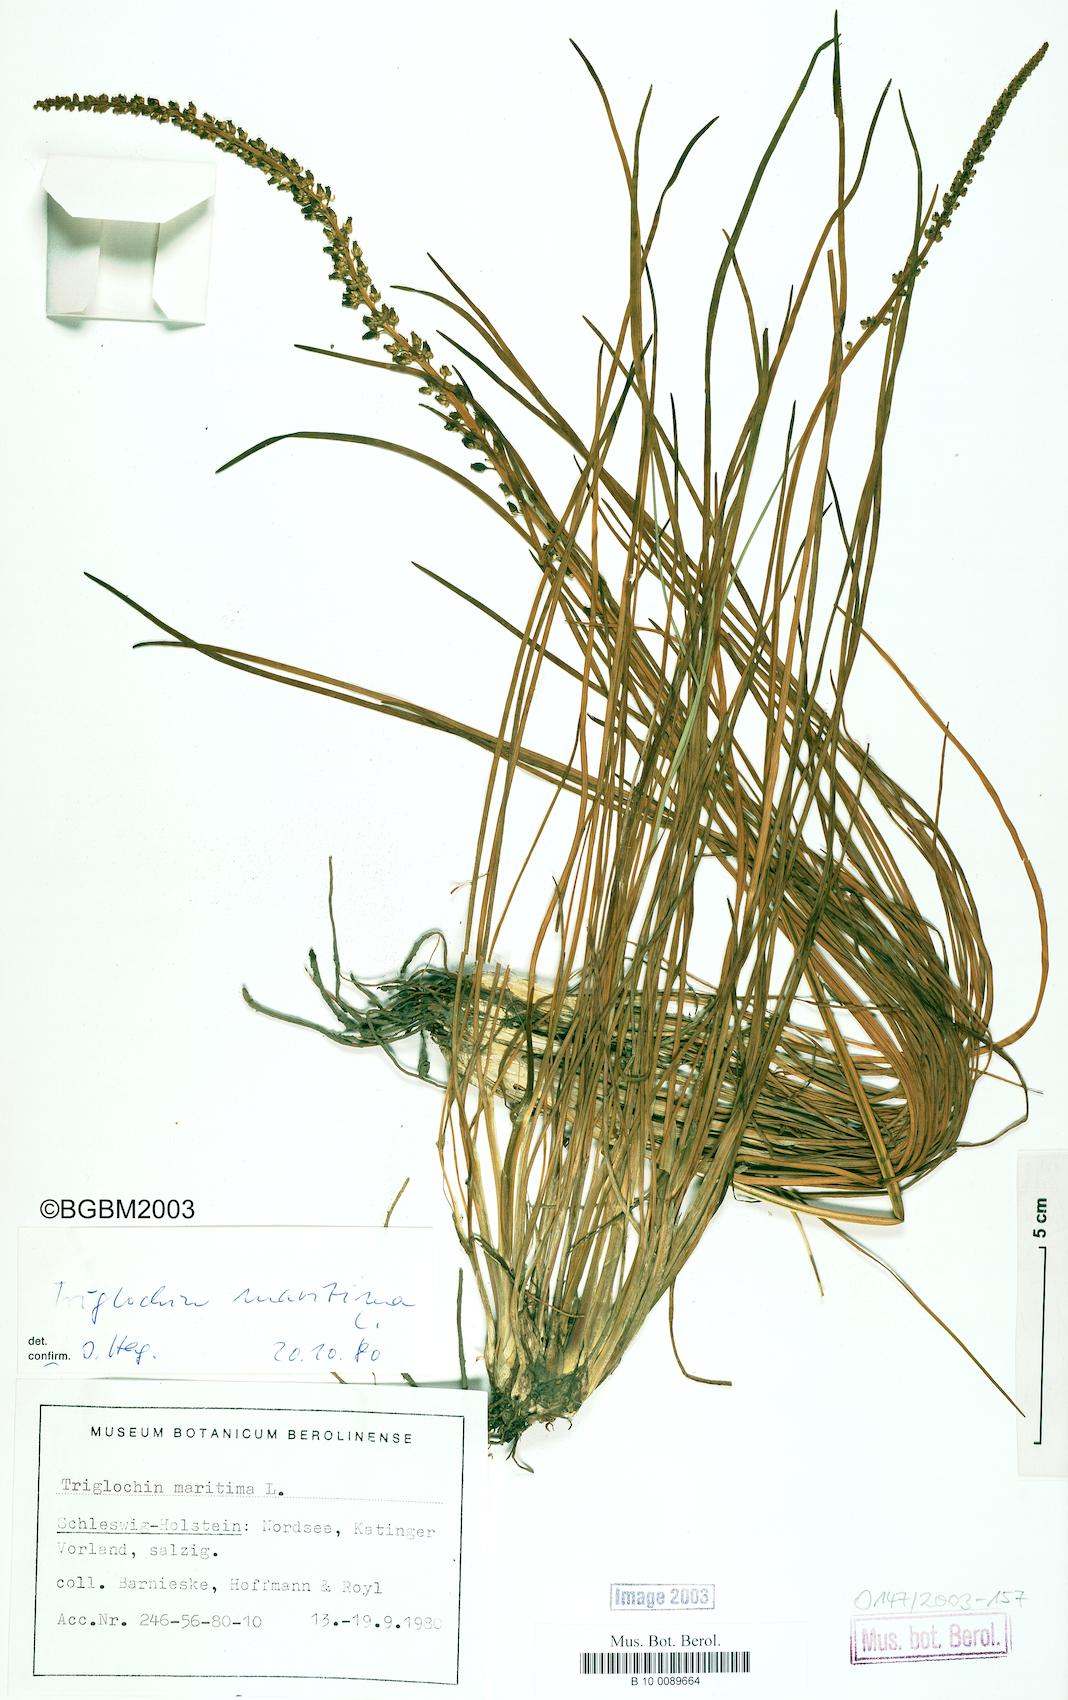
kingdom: Plantae
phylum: Tracheophyta
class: Liliopsida
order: Alismatales
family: Juncaginaceae
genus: Triglochin
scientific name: Triglochin maritima
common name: Sea arrowgrass
